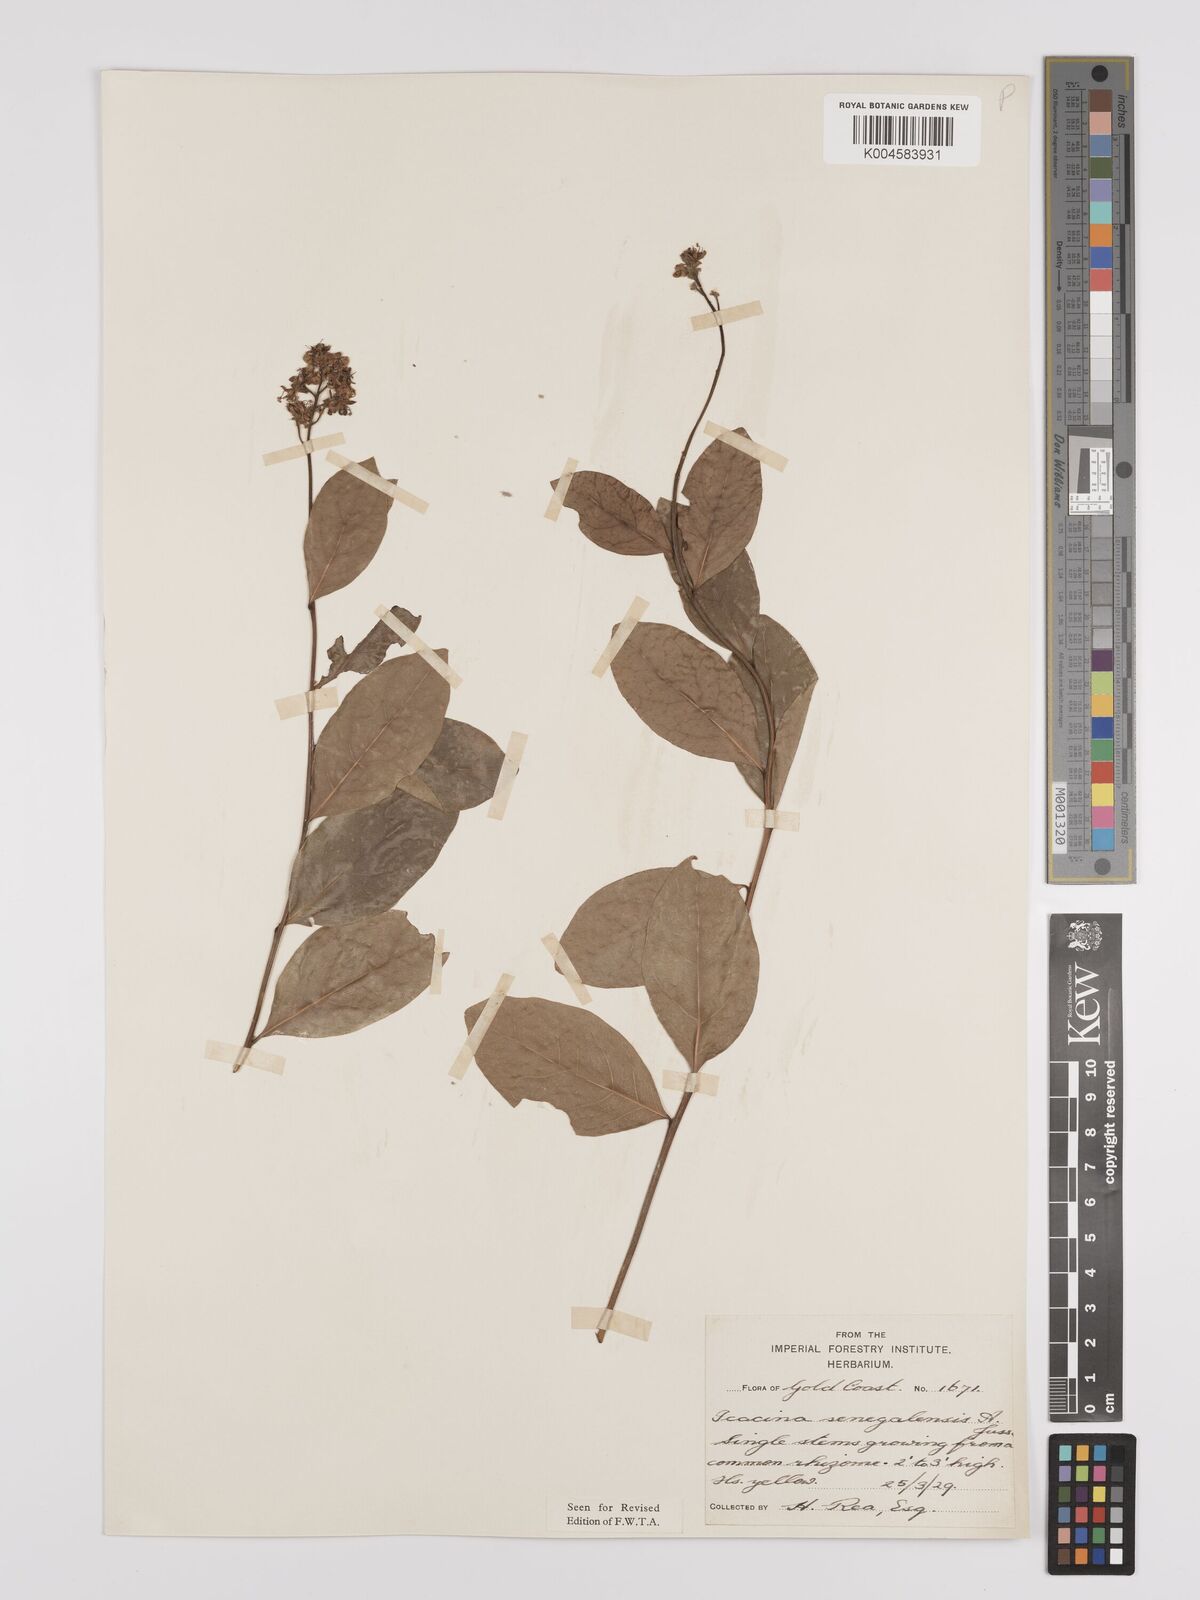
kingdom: Plantae
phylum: Tracheophyta
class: Magnoliopsida
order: Icacinales
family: Icacinaceae
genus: Icacina
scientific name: Icacina oliviformis
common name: False yam
